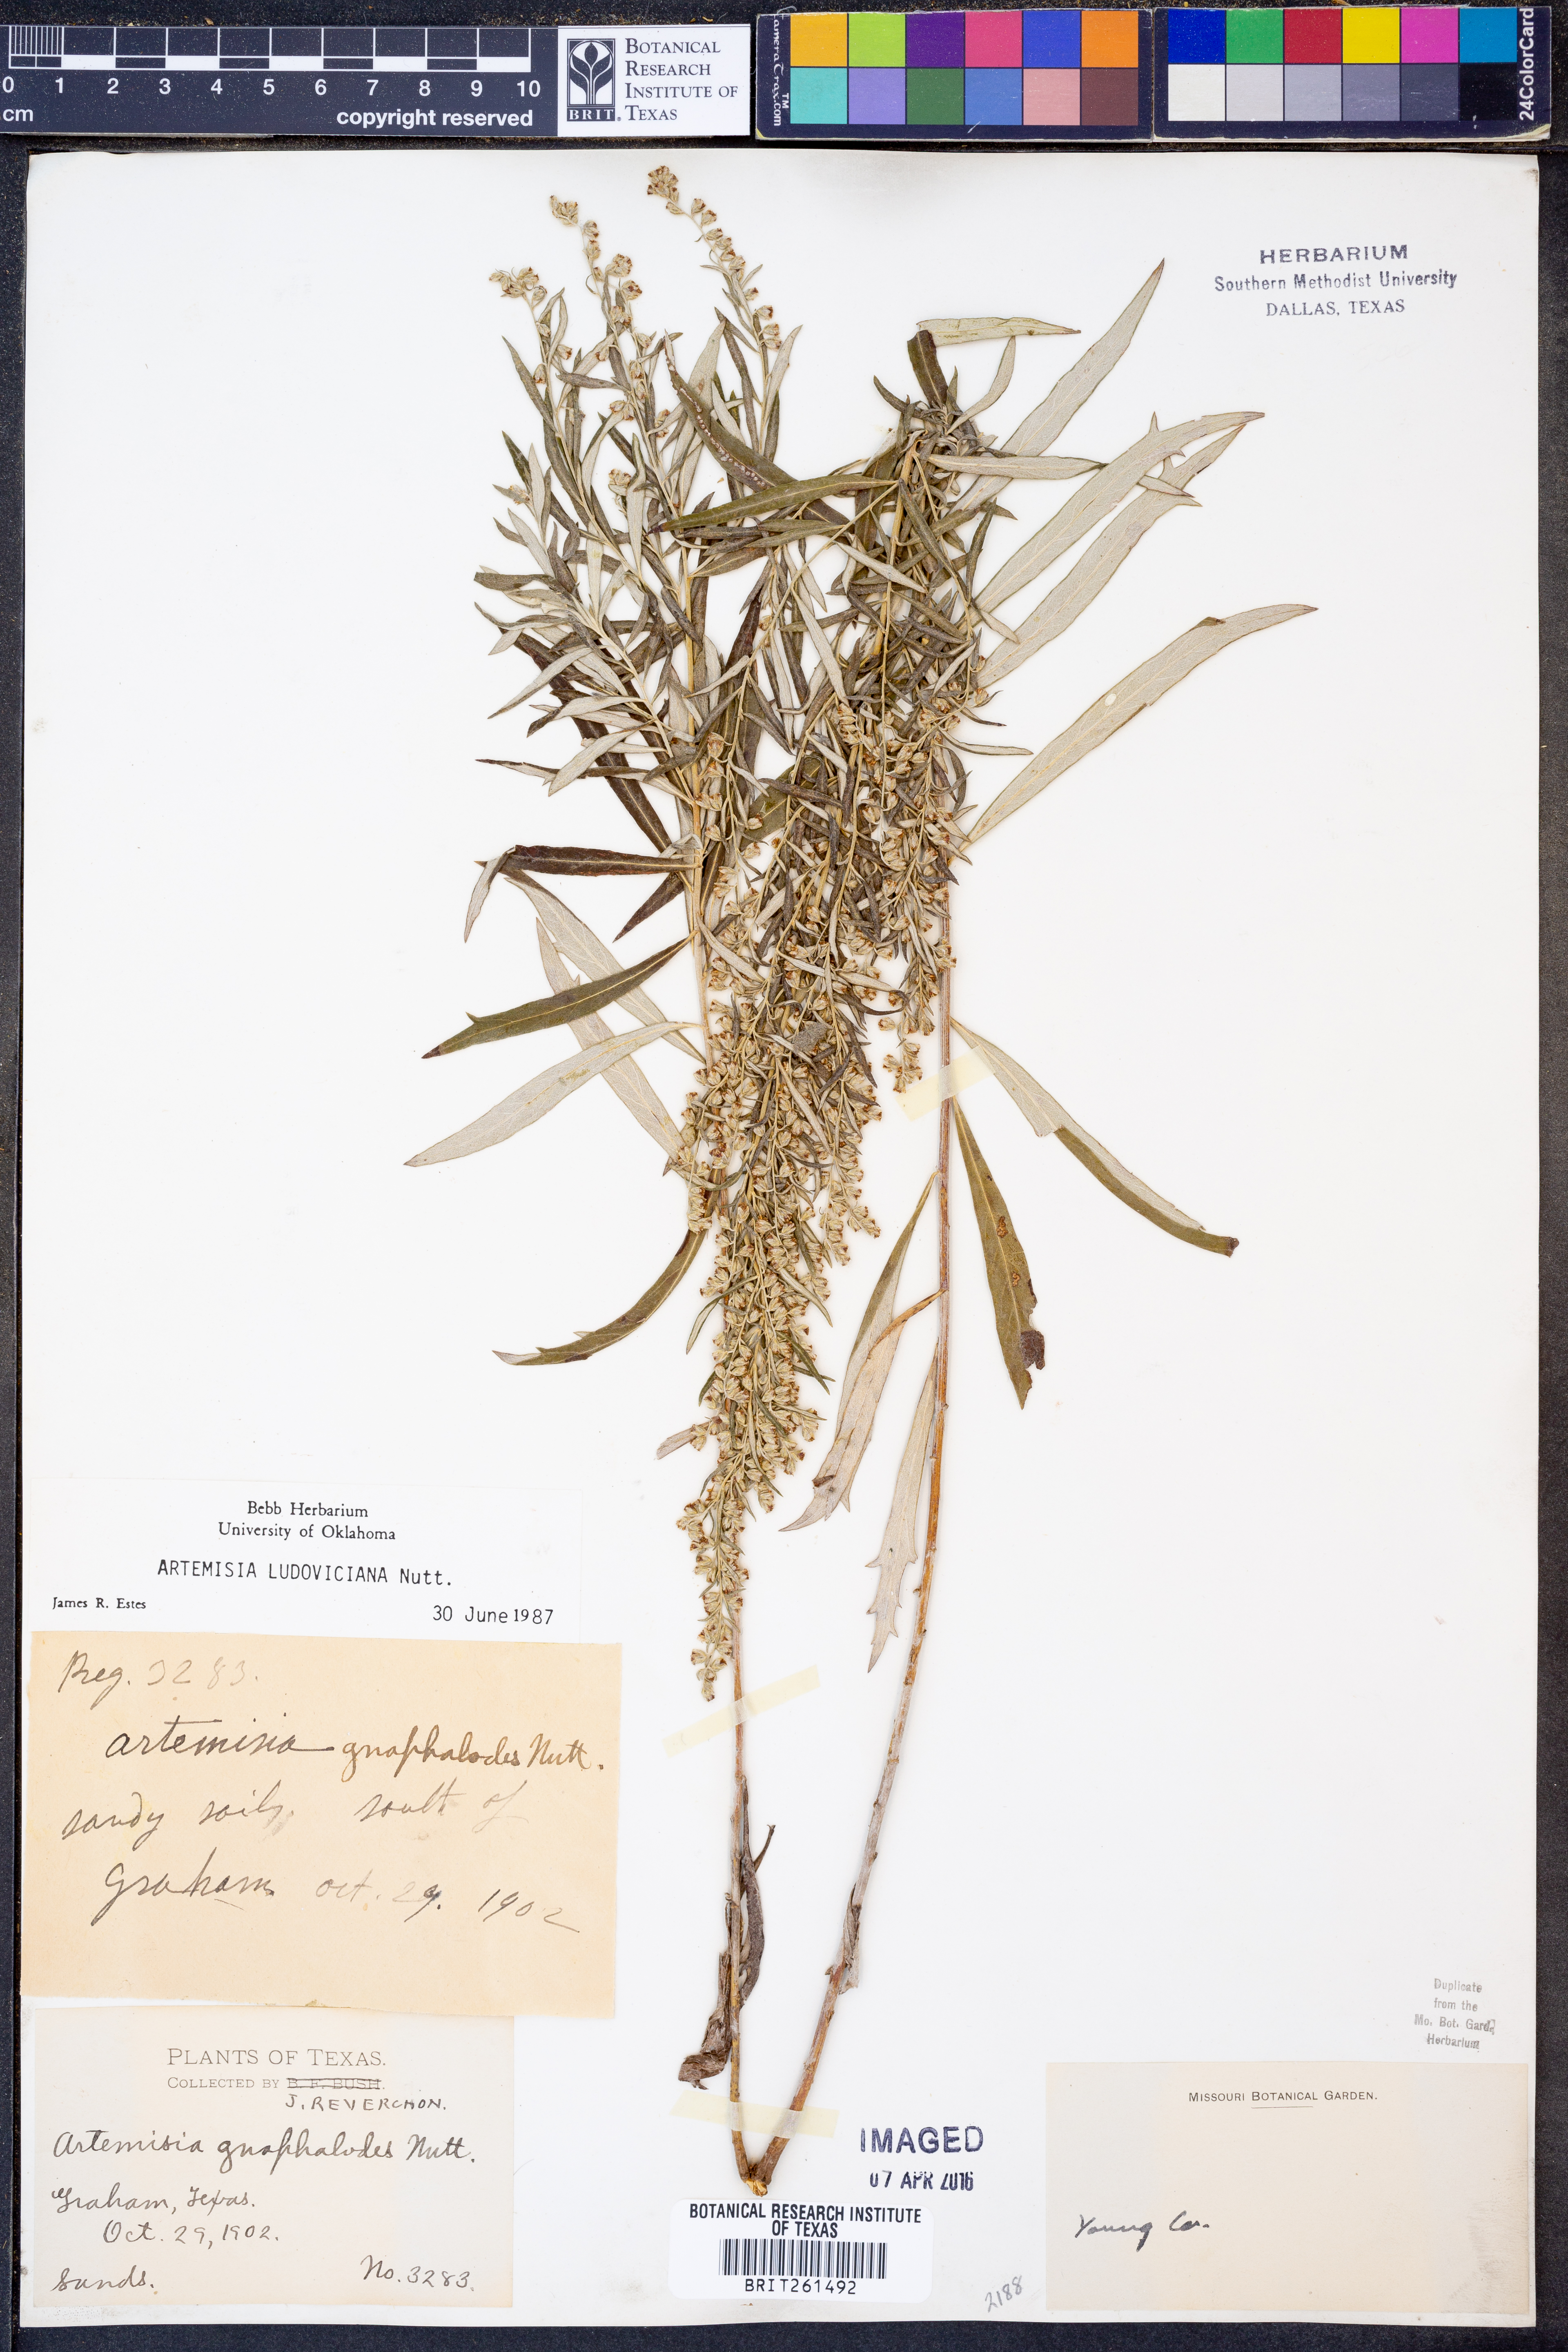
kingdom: Plantae
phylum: Tracheophyta
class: Magnoliopsida
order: Asterales
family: Asteraceae
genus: Artemisia
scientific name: Artemisia ludoviciana
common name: Western mugwort
